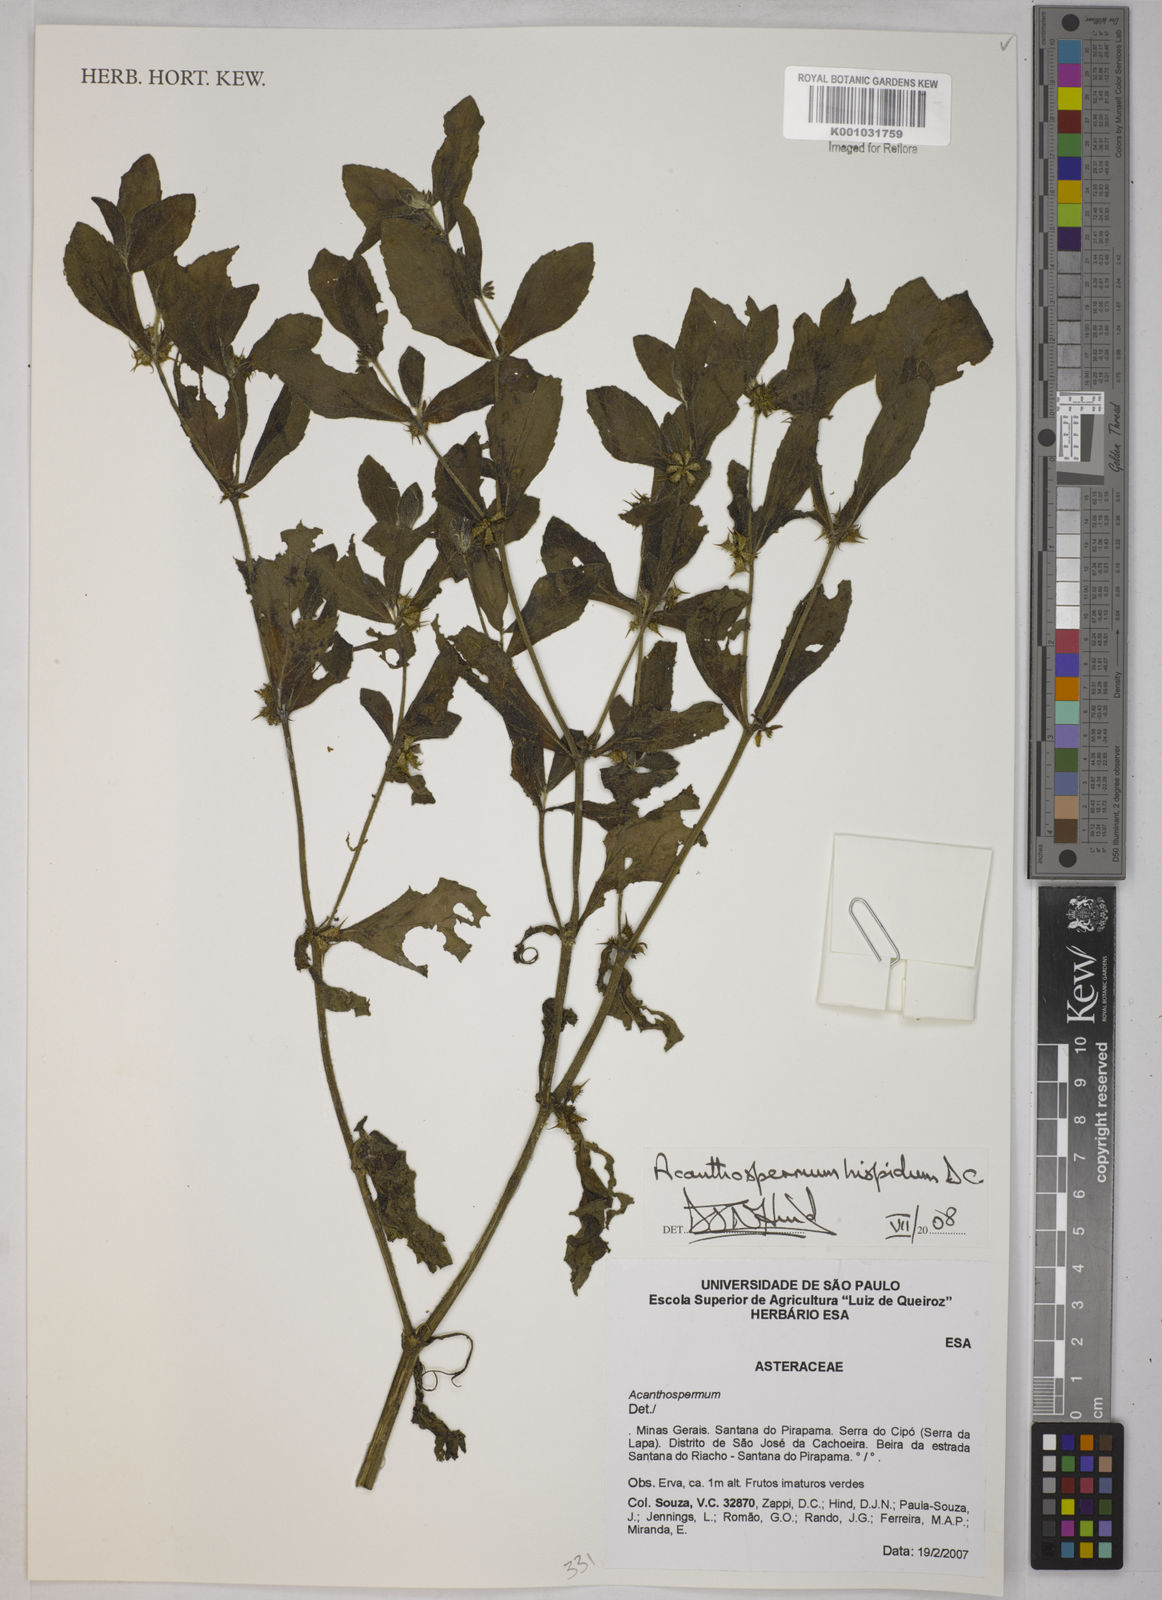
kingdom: Plantae
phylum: Tracheophyta
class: Magnoliopsida
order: Asterales
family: Asteraceae
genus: Acanthospermum
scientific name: Acanthospermum hispidum
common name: Hispid starbur
